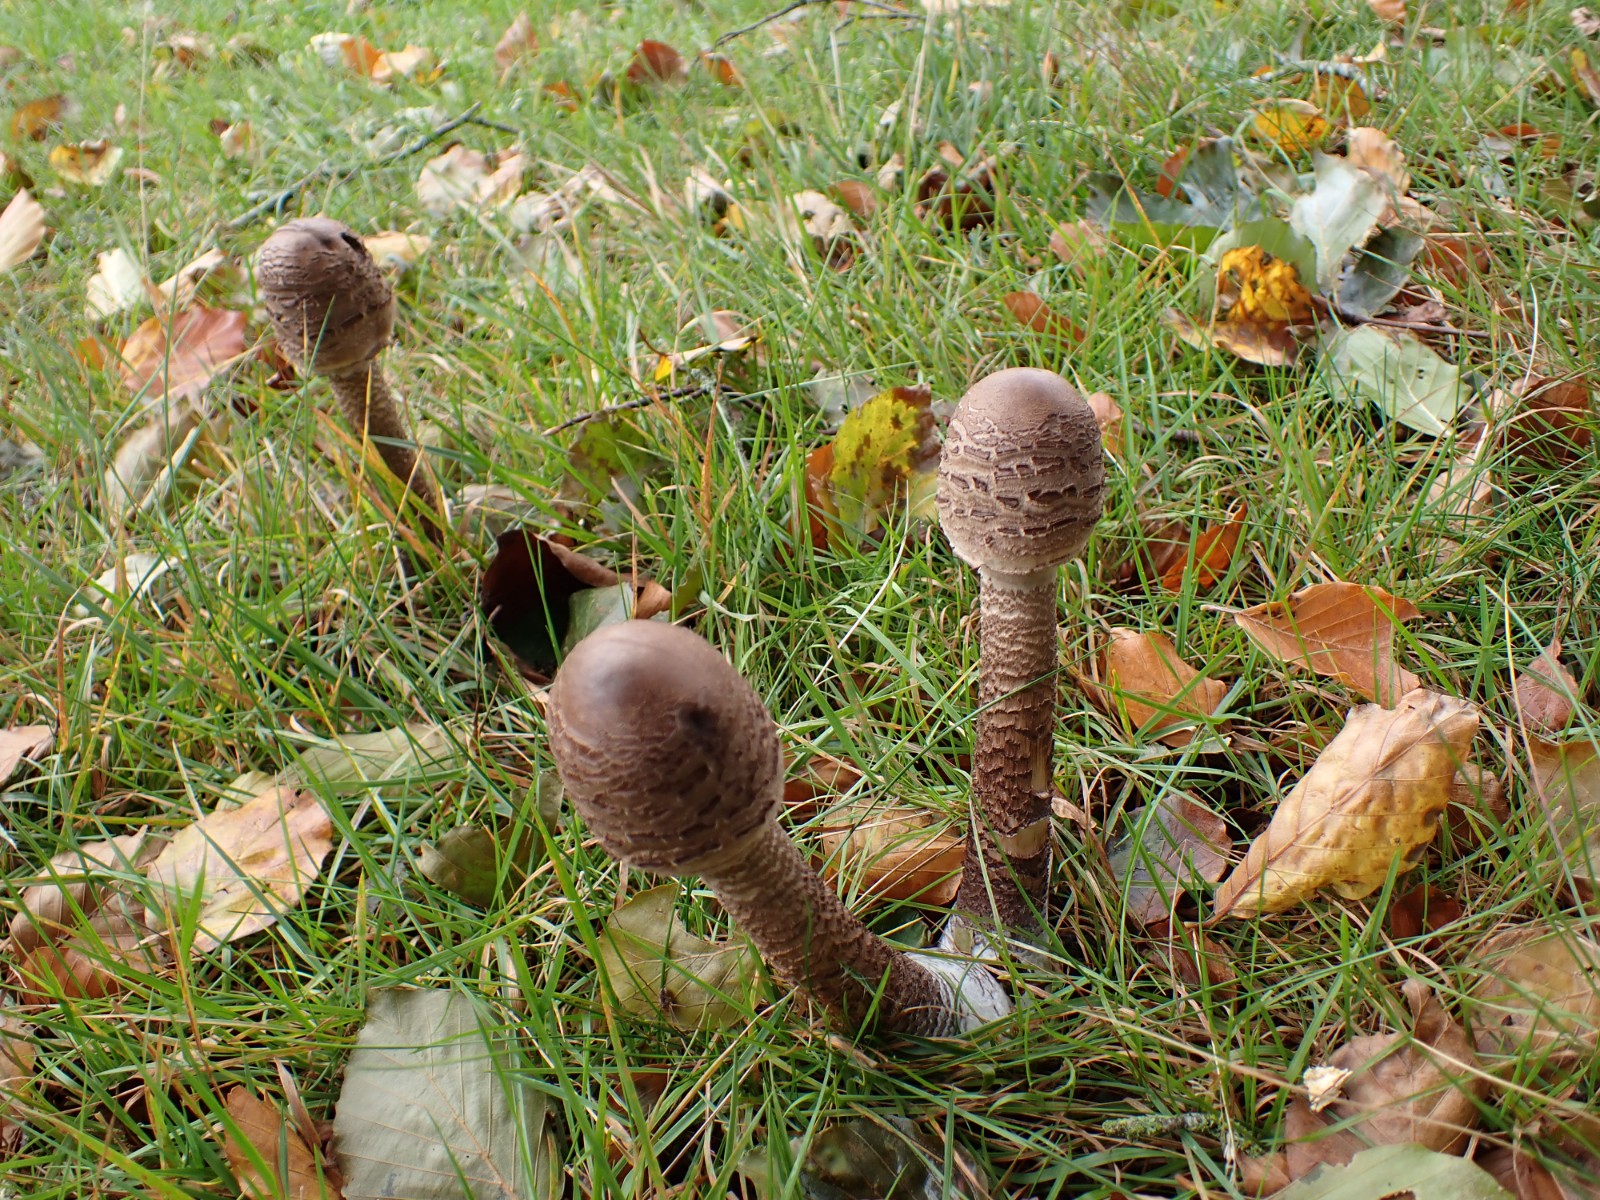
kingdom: Fungi
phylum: Basidiomycota
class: Agaricomycetes
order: Agaricales
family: Agaricaceae
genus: Macrolepiota
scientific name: Macrolepiota procera
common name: stor kæmpeparasolhat
